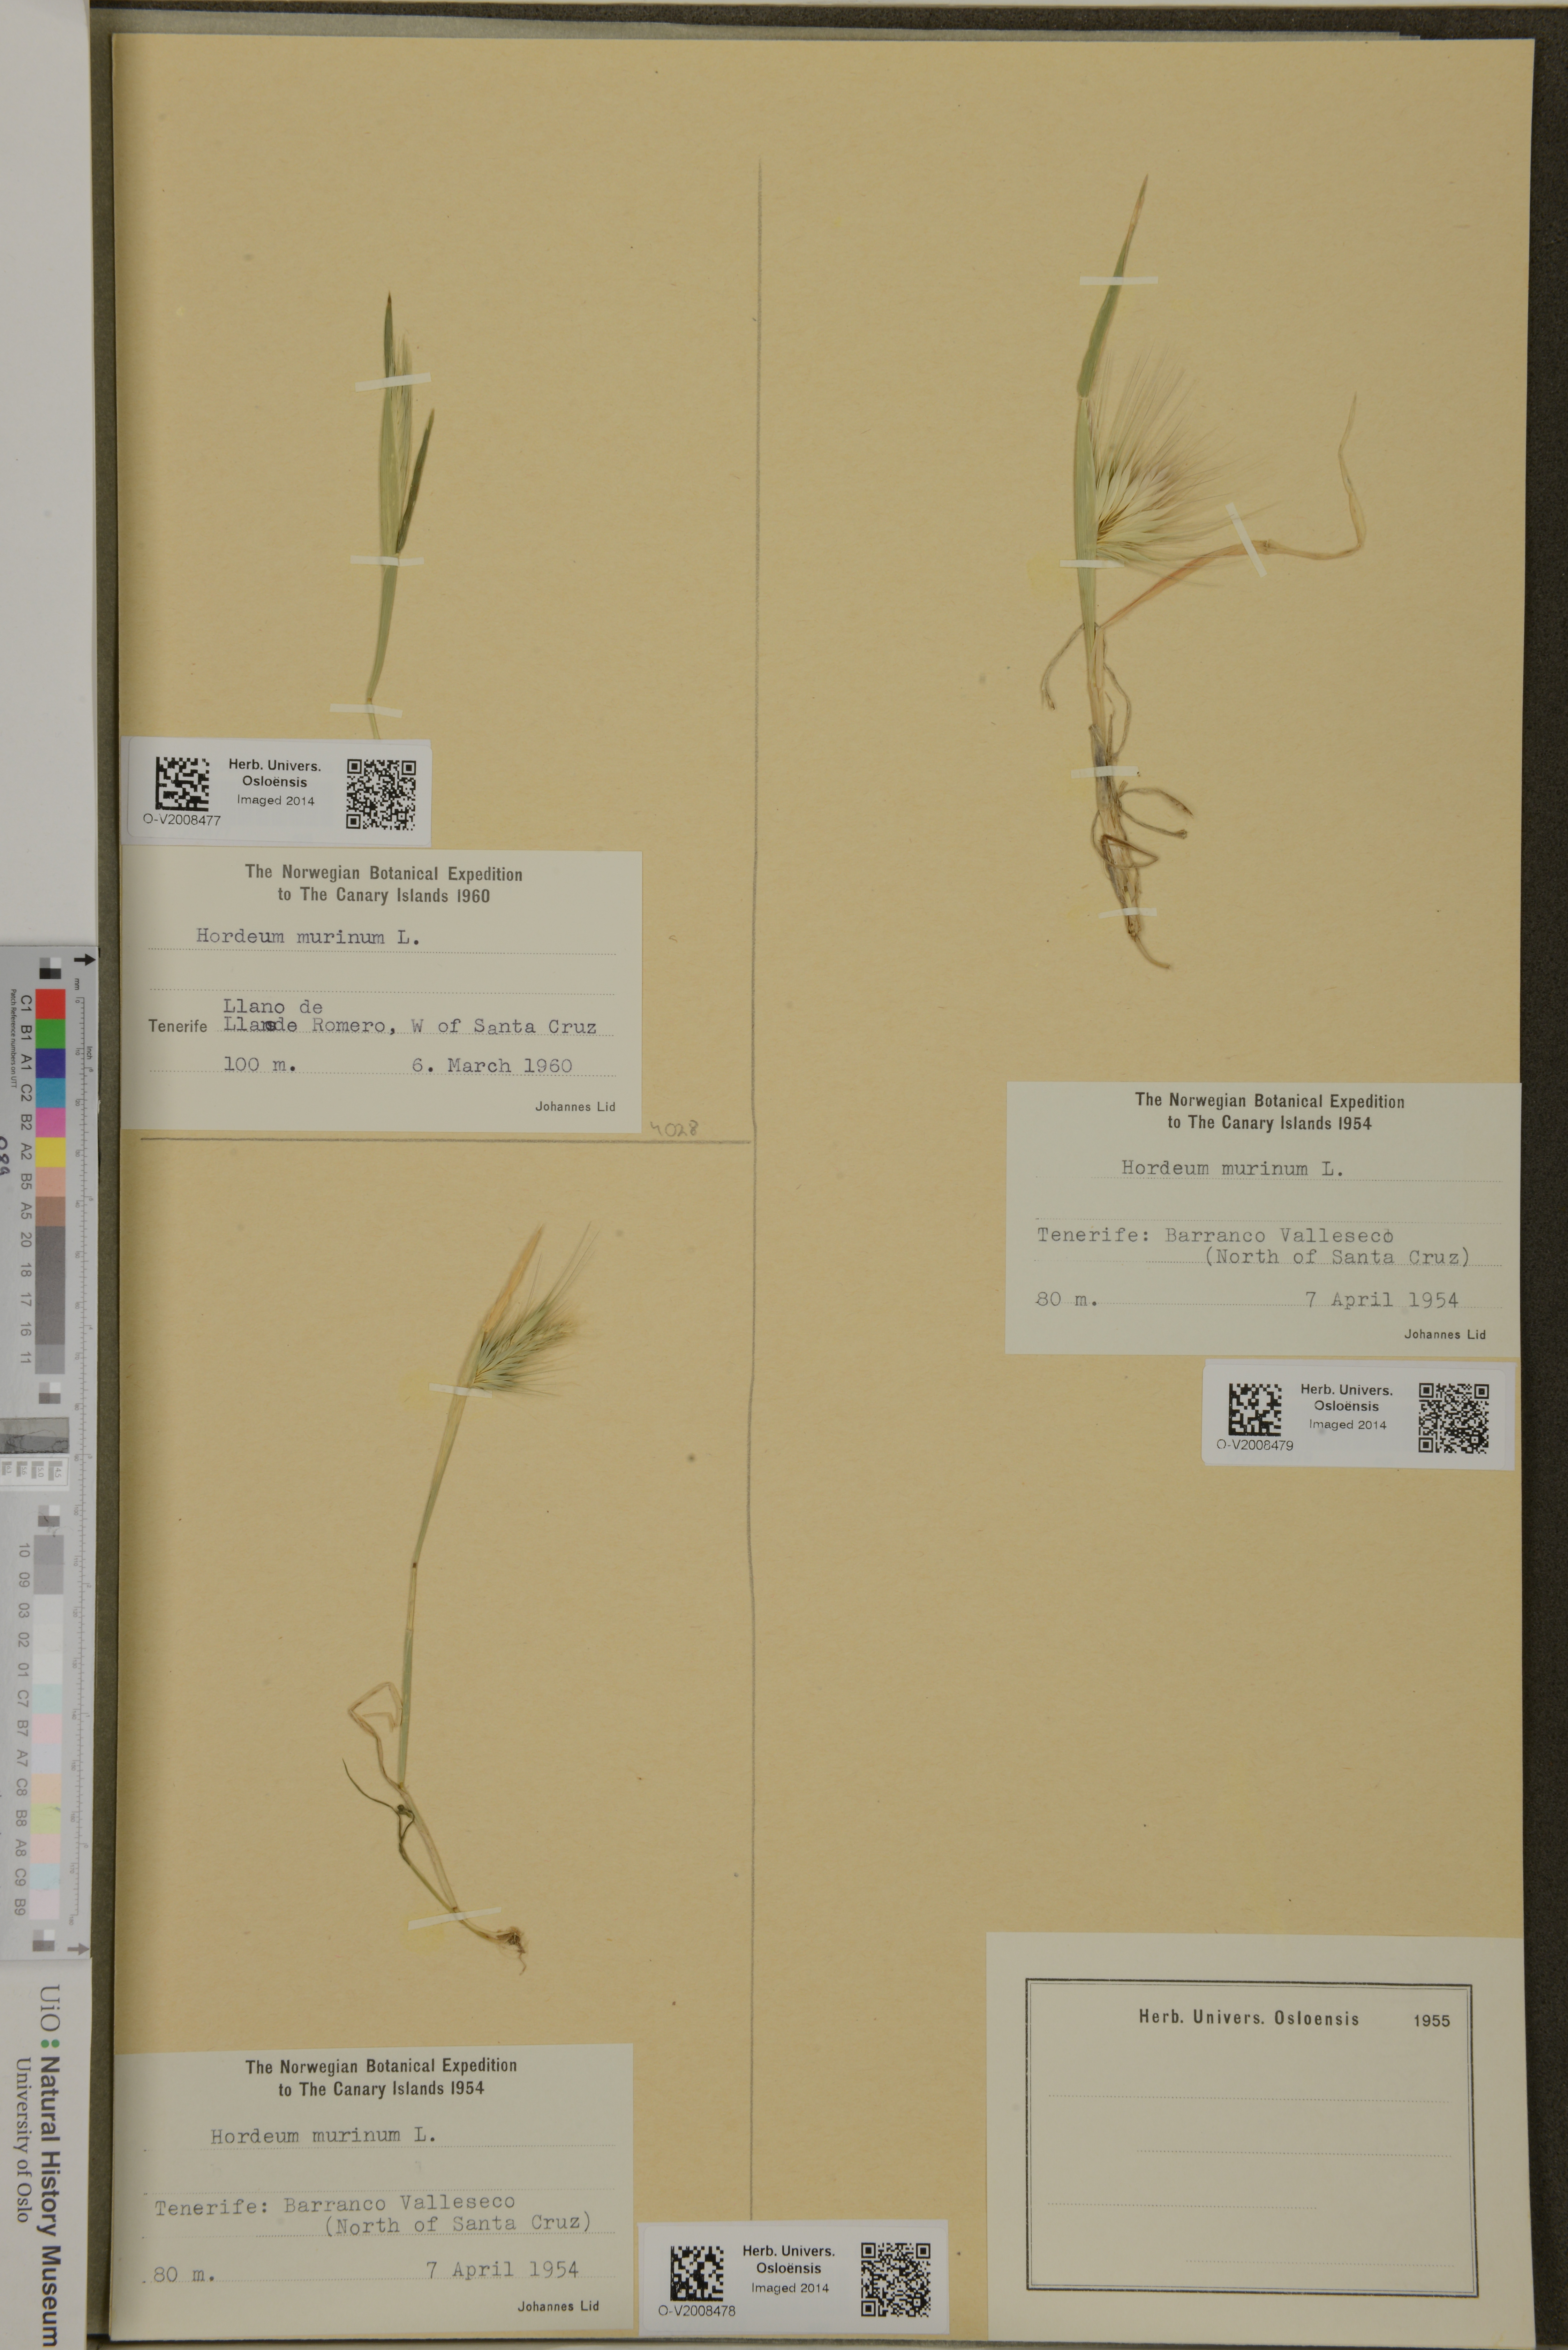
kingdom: Plantae
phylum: Tracheophyta
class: Liliopsida
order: Poales
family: Poaceae
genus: Hordeum
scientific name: Hordeum murinum
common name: Wall barley
